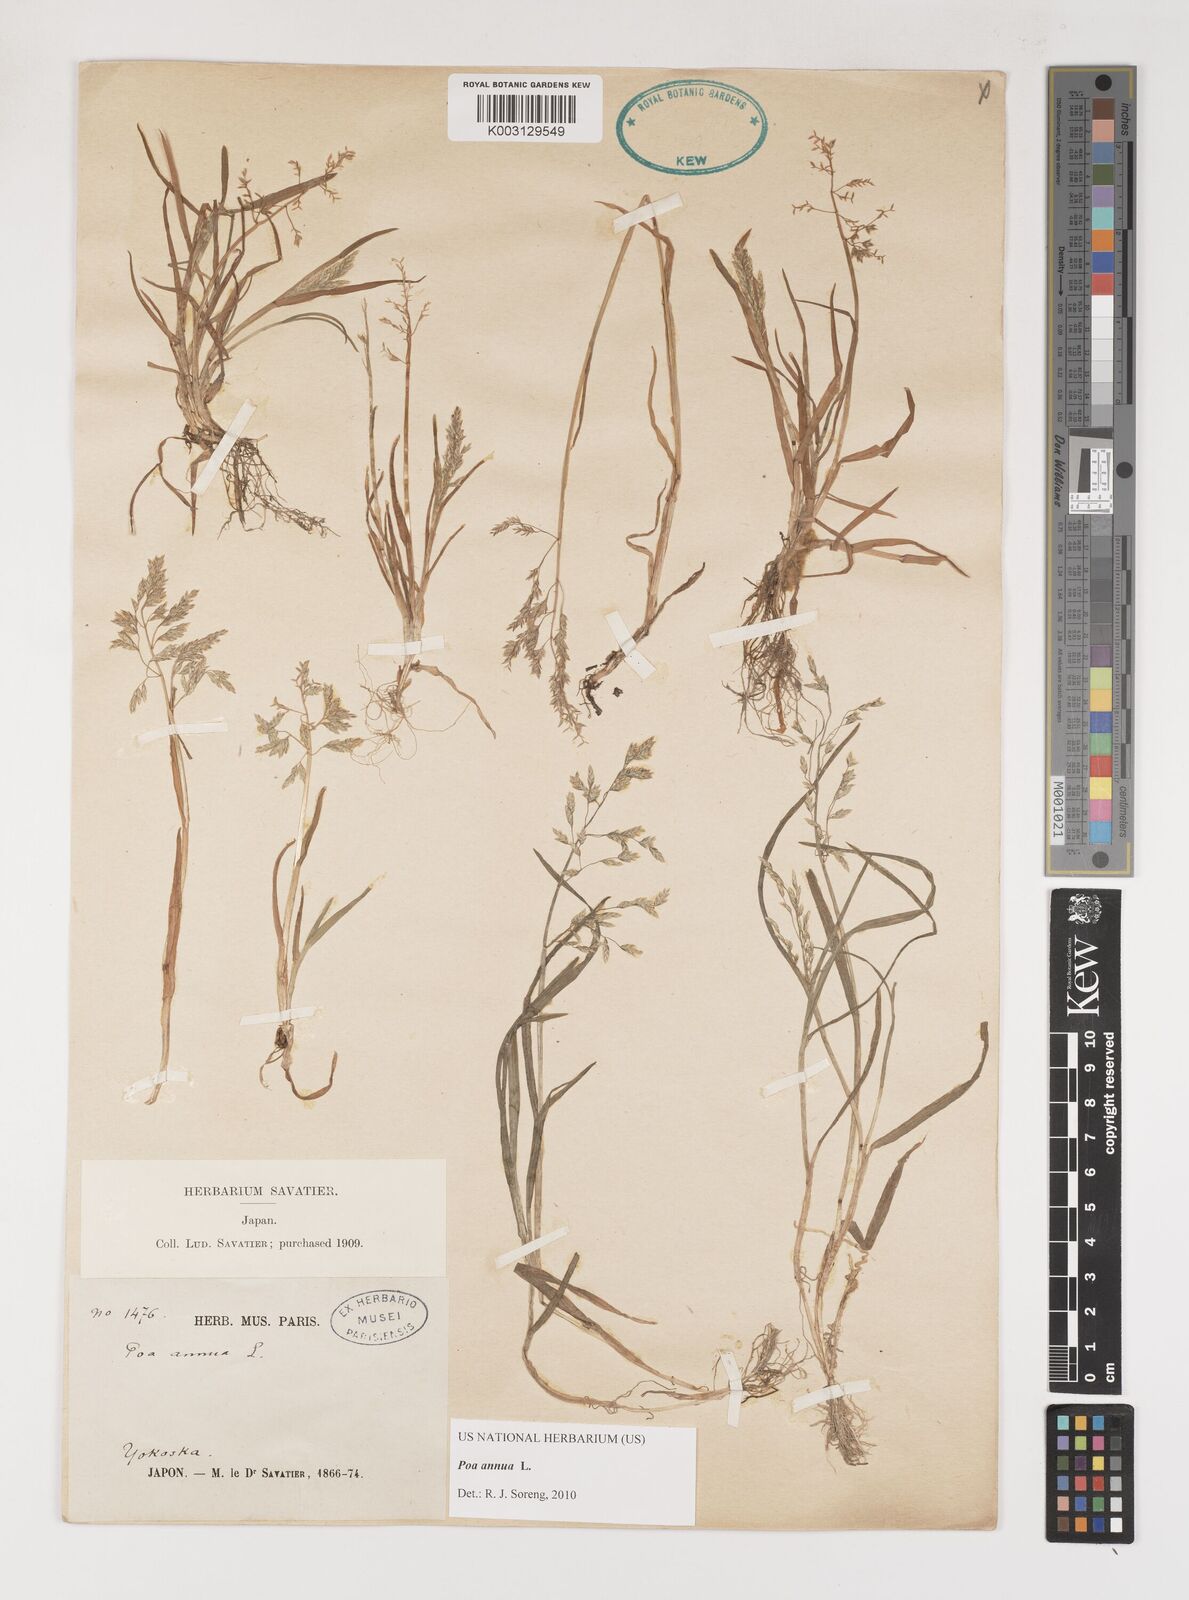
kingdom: Plantae
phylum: Tracheophyta
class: Liliopsida
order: Poales
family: Poaceae
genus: Poa
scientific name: Poa annua
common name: Annual bluegrass
